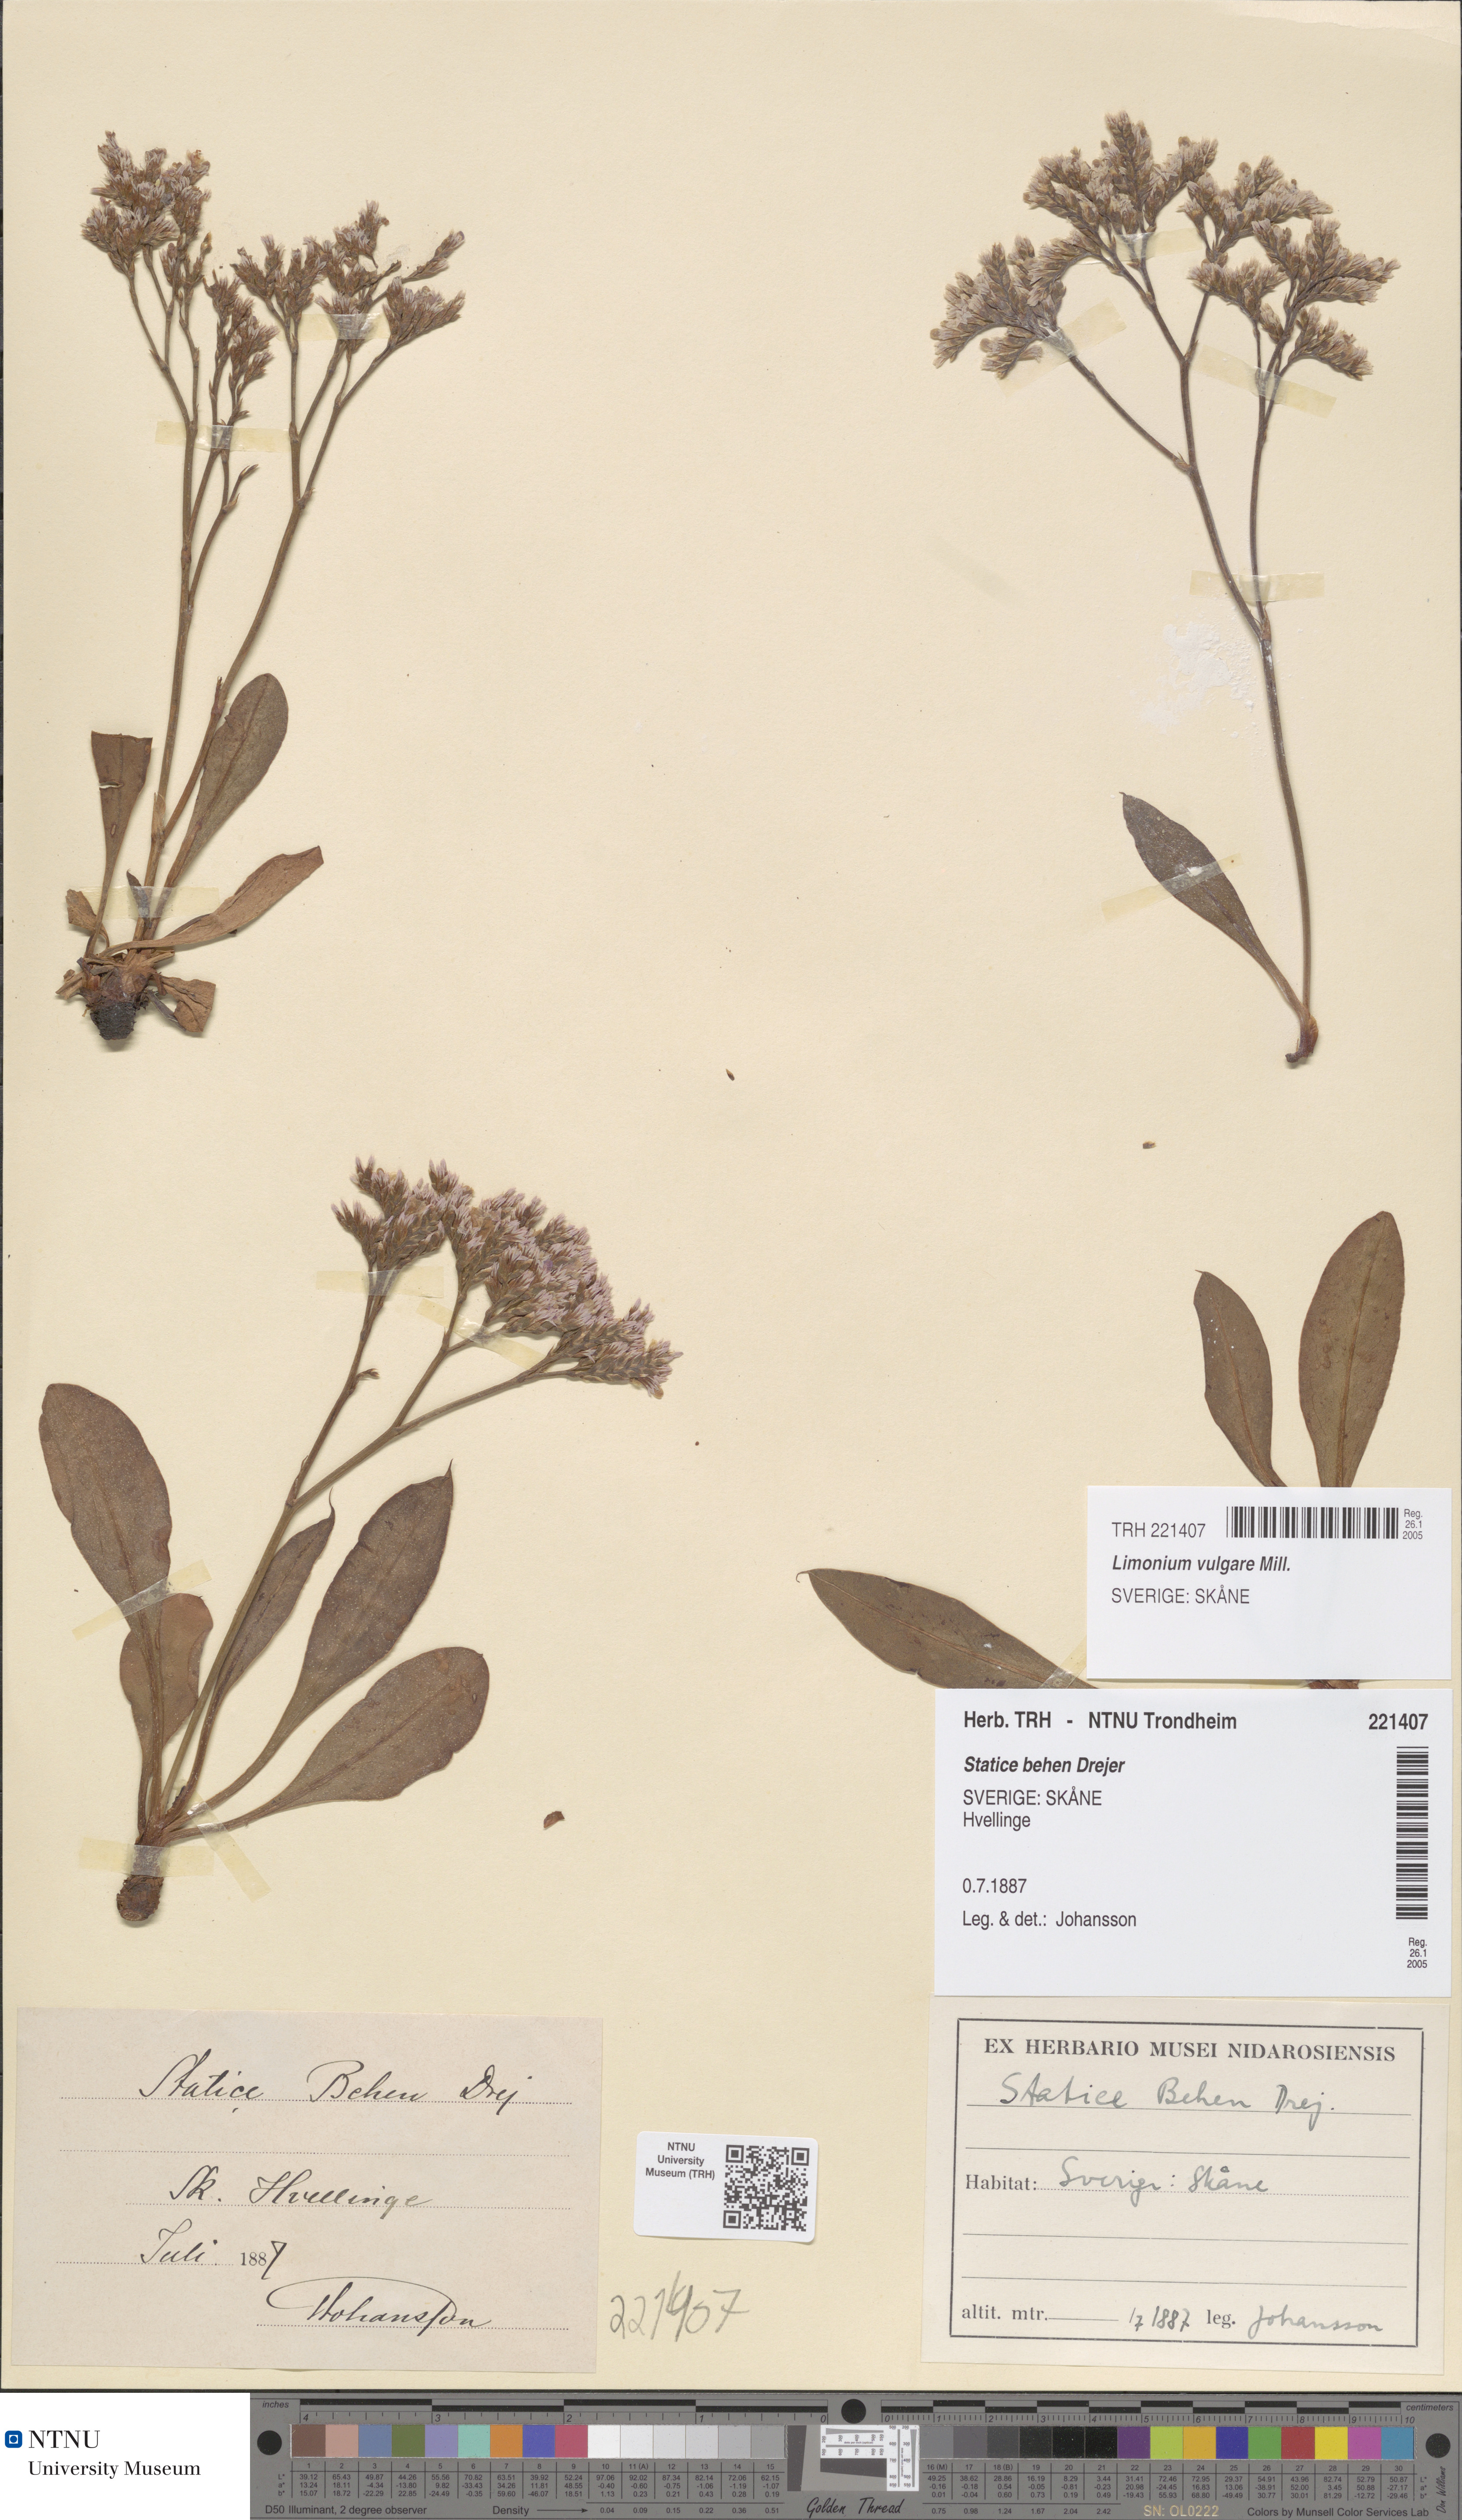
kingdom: Plantae
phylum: Tracheophyta
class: Magnoliopsida
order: Caryophyllales
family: Plumbaginaceae
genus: Limonium
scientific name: Limonium vulgare
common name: Common sea-lavender
